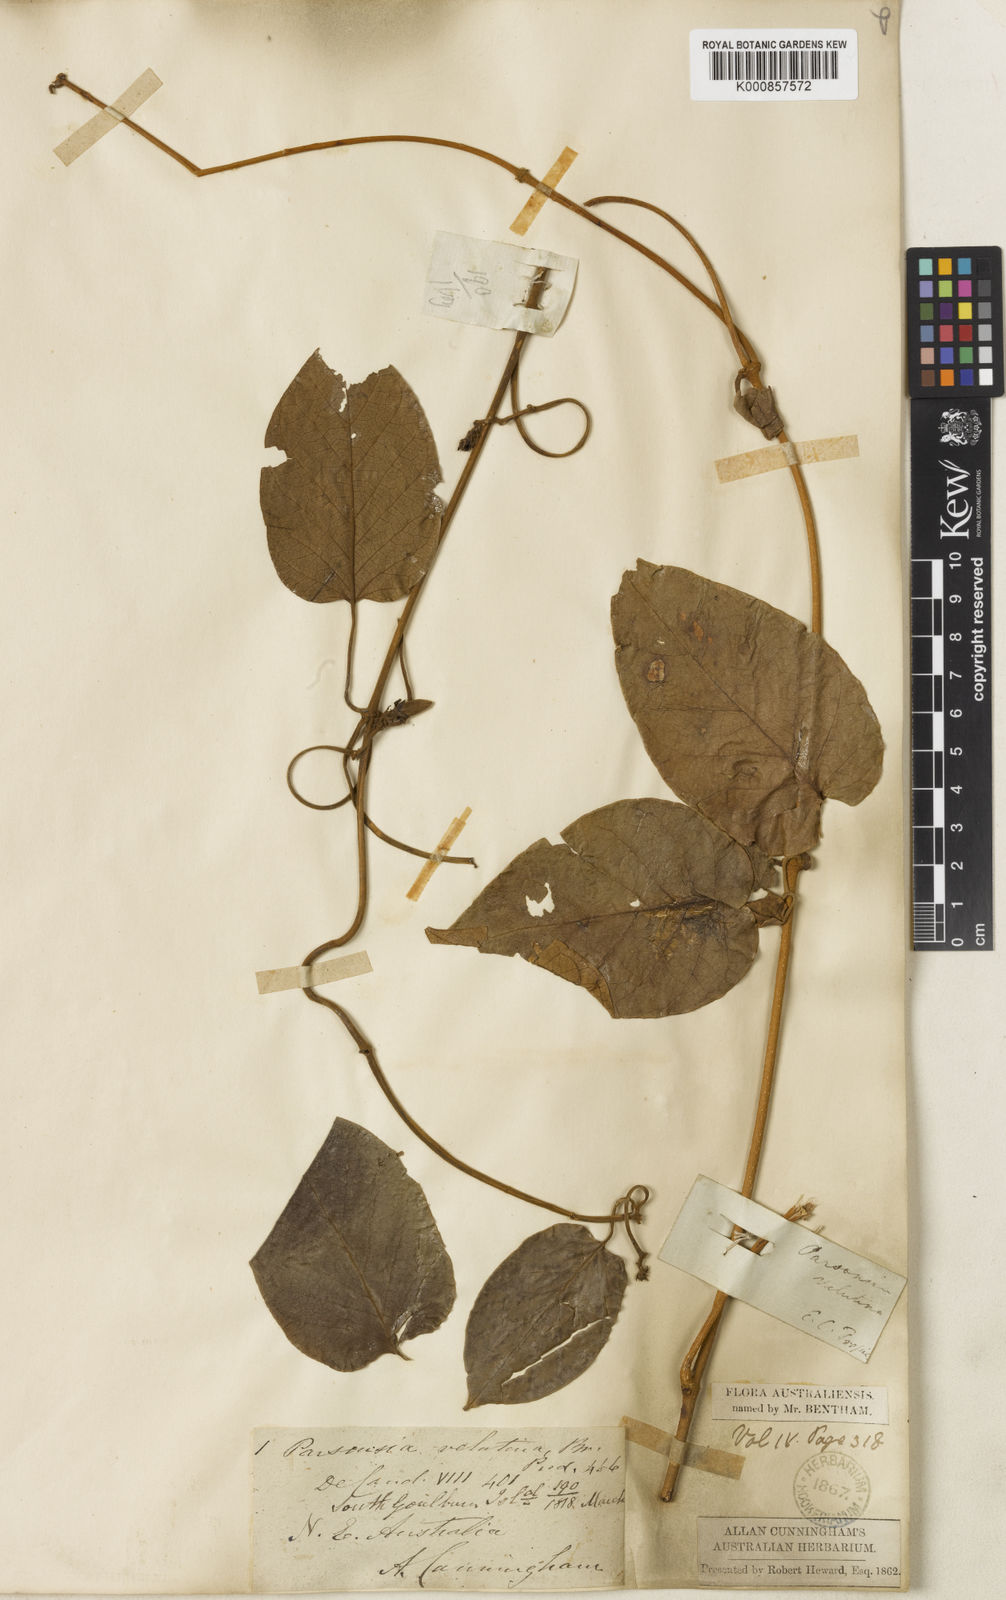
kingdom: Plantae
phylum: Tracheophyta
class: Magnoliopsida
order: Gentianales
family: Apocynaceae
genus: Parsonsia
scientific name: Parsonsia velutina
